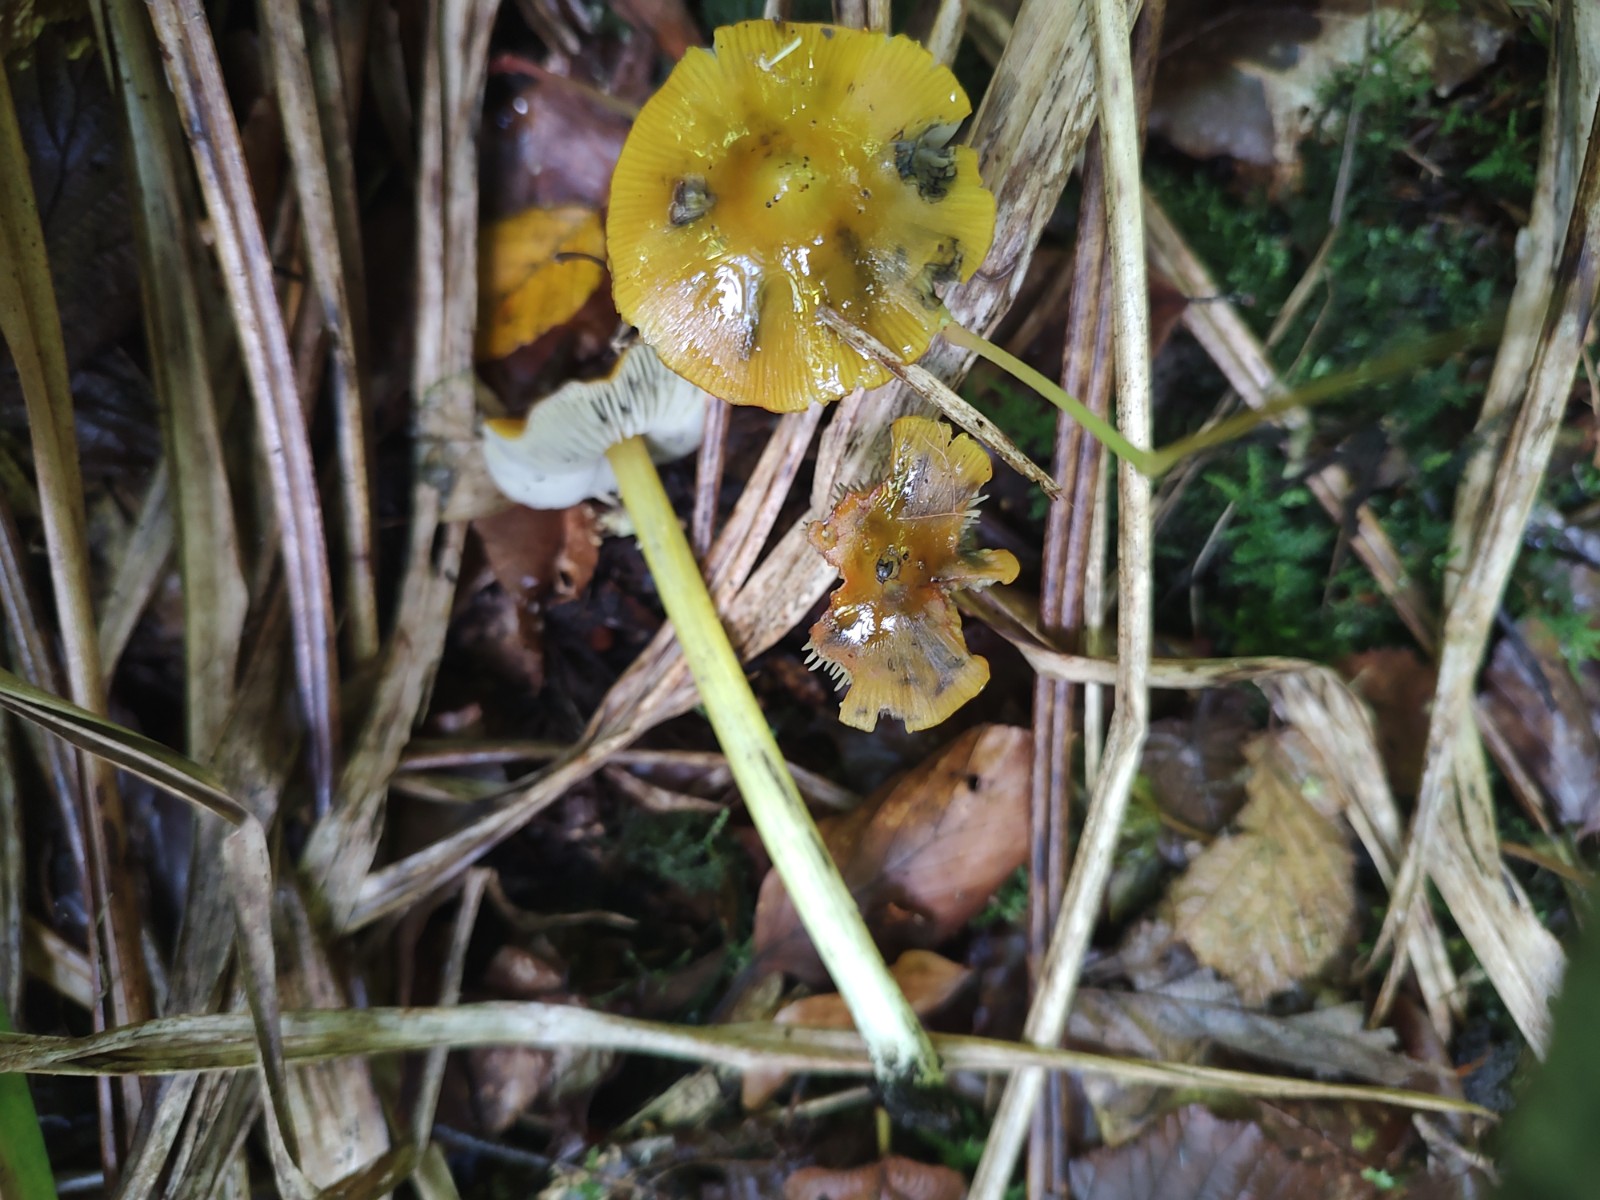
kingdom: Fungi
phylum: Basidiomycota
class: Agaricomycetes
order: Agaricales
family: Hygrophoraceae
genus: Hygrocybe
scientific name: Hygrocybe conica
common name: kegle-vokshat
